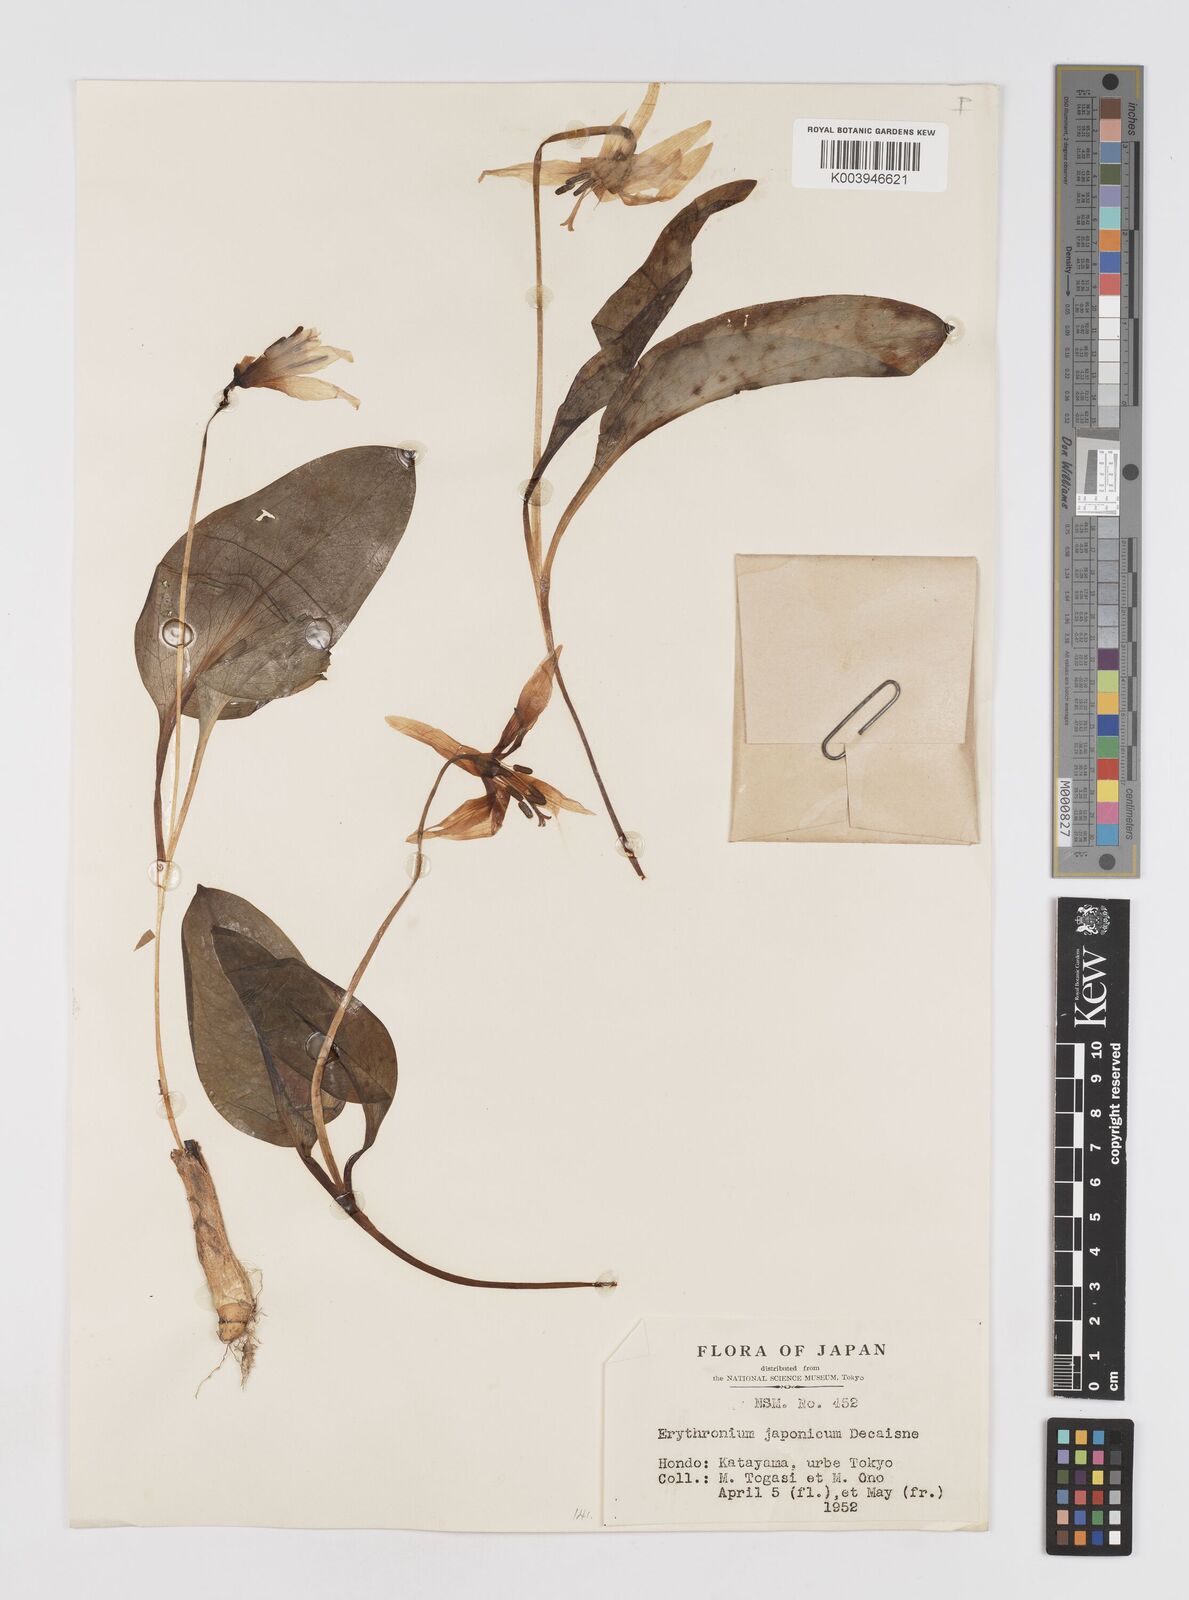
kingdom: Plantae
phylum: Tracheophyta
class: Liliopsida
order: Liliales
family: Liliaceae
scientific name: Liliaceae
